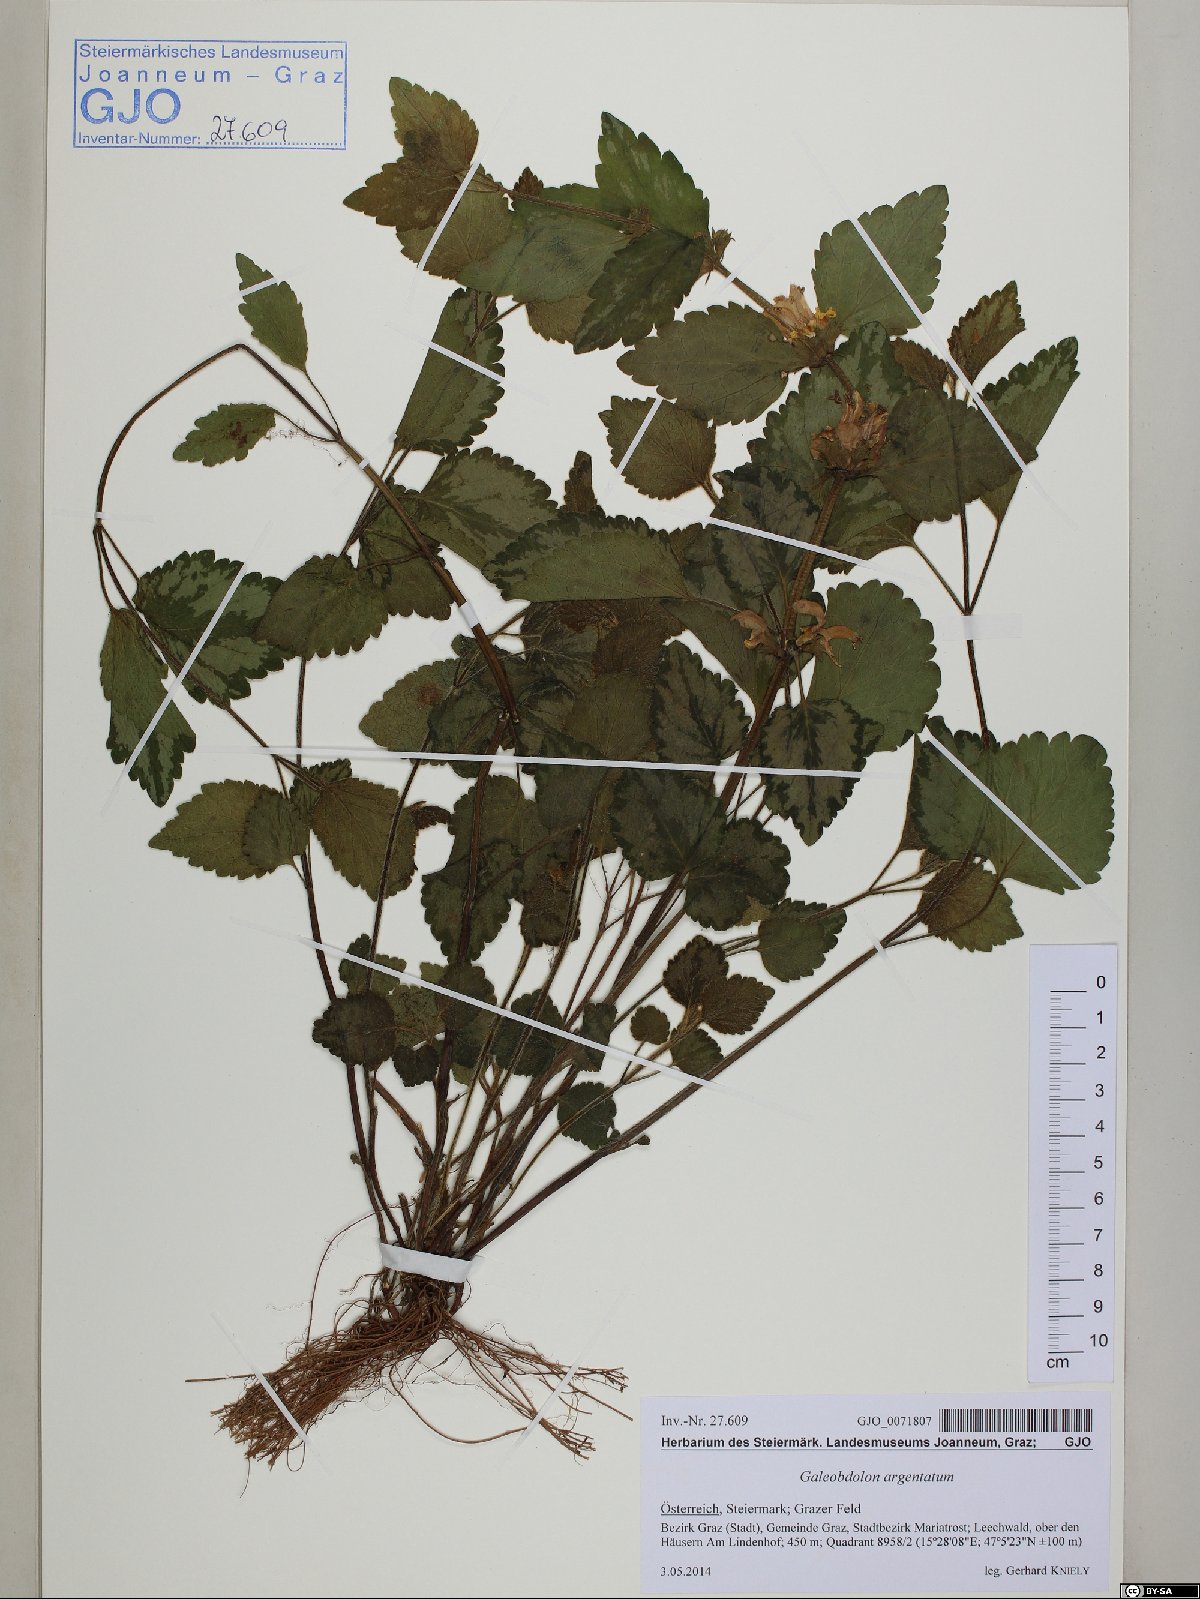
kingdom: Plantae
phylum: Tracheophyta
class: Magnoliopsida
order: Lamiales
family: Lamiaceae
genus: Lamium
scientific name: Lamium galeobdolon
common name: Yellow archangel
